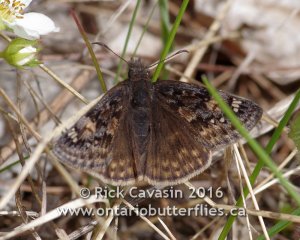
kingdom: Animalia
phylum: Arthropoda
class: Insecta
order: Lepidoptera
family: Hesperiidae
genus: Gesta
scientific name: Gesta
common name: Juvenal's Duskywing
